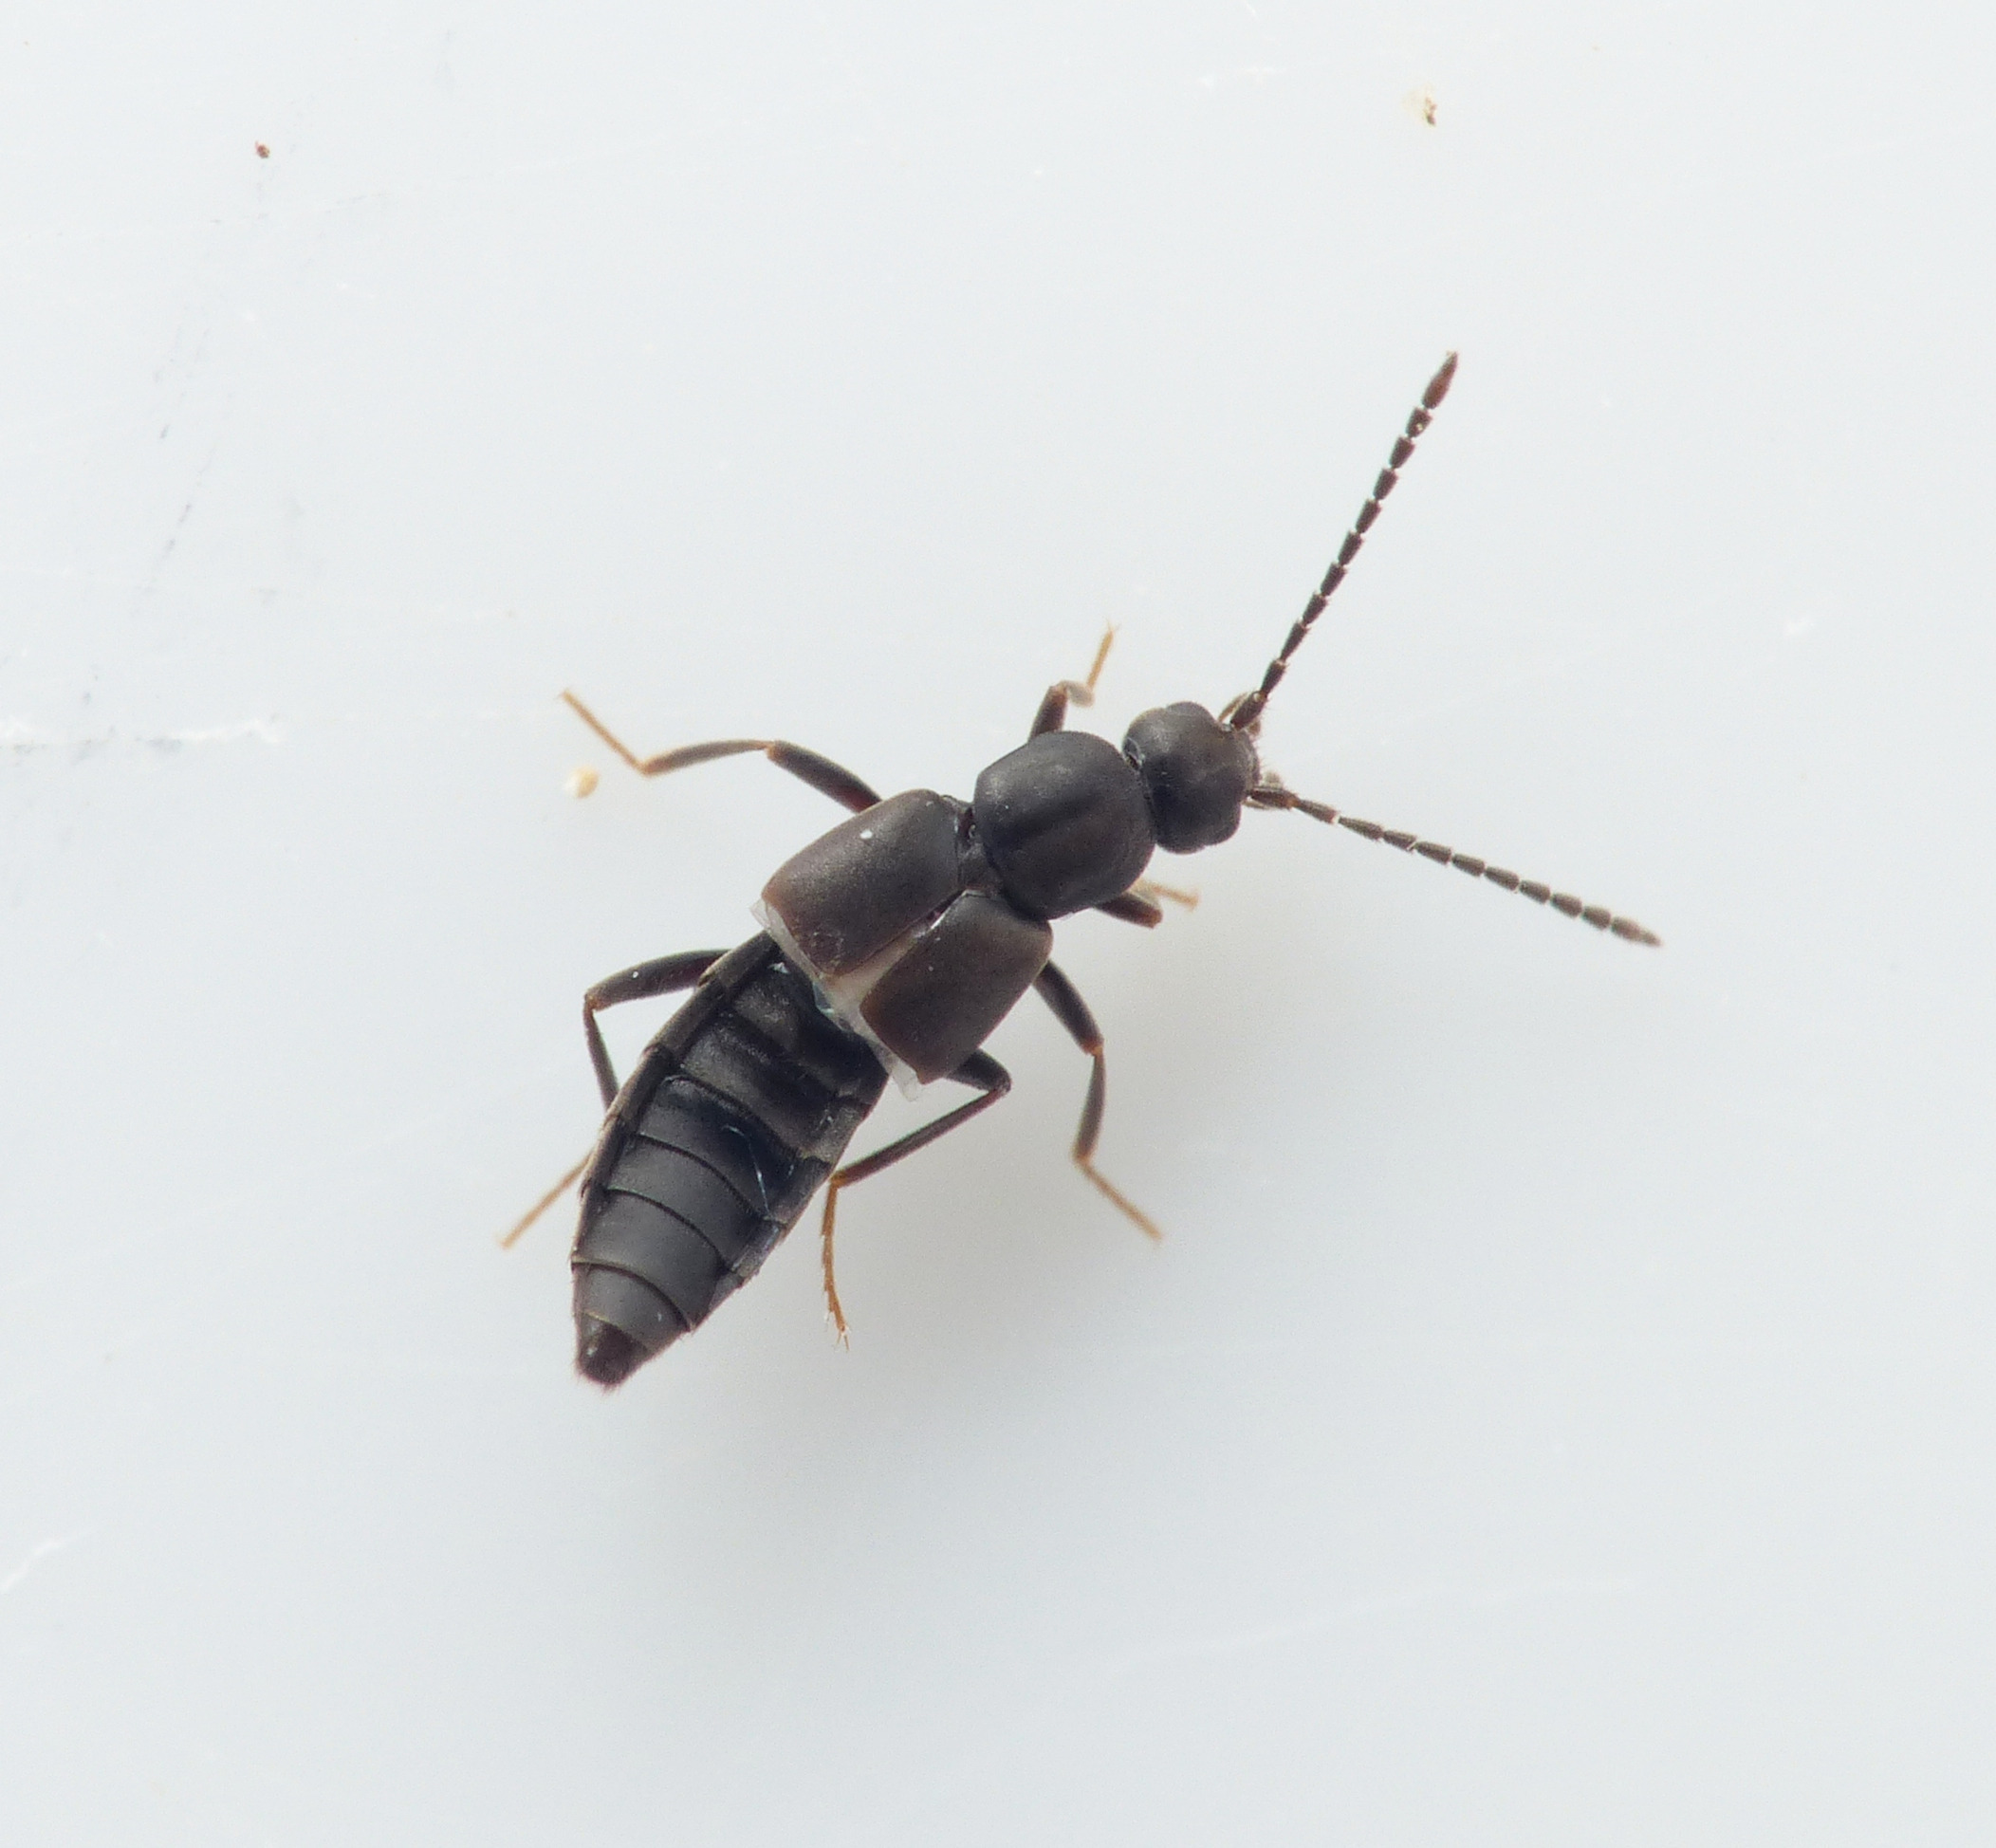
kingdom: Animalia
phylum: Arthropoda
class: Insecta
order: Coleoptera
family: Staphylinidae
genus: Thinonoma
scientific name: Thinonoma atra
